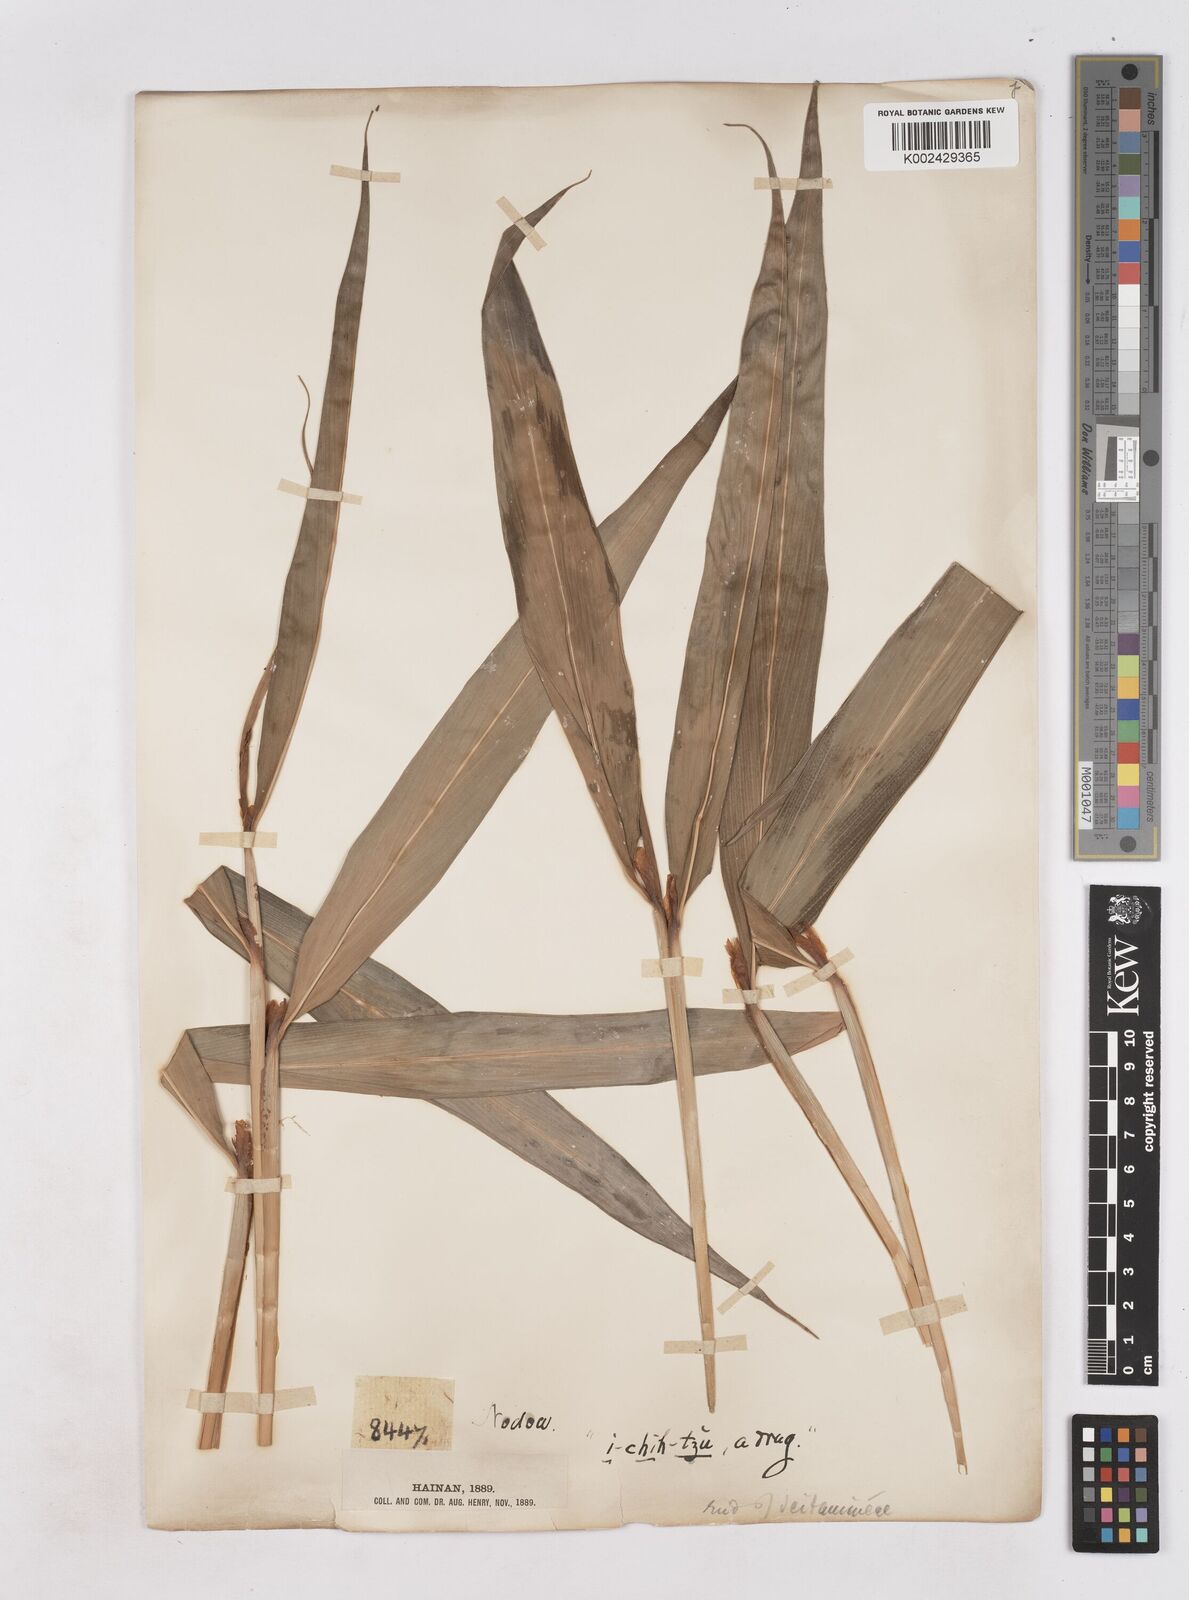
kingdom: Plantae
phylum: Tracheophyta
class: Liliopsida
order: Zingiberales
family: Zingiberaceae
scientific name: Zingiberaceae
